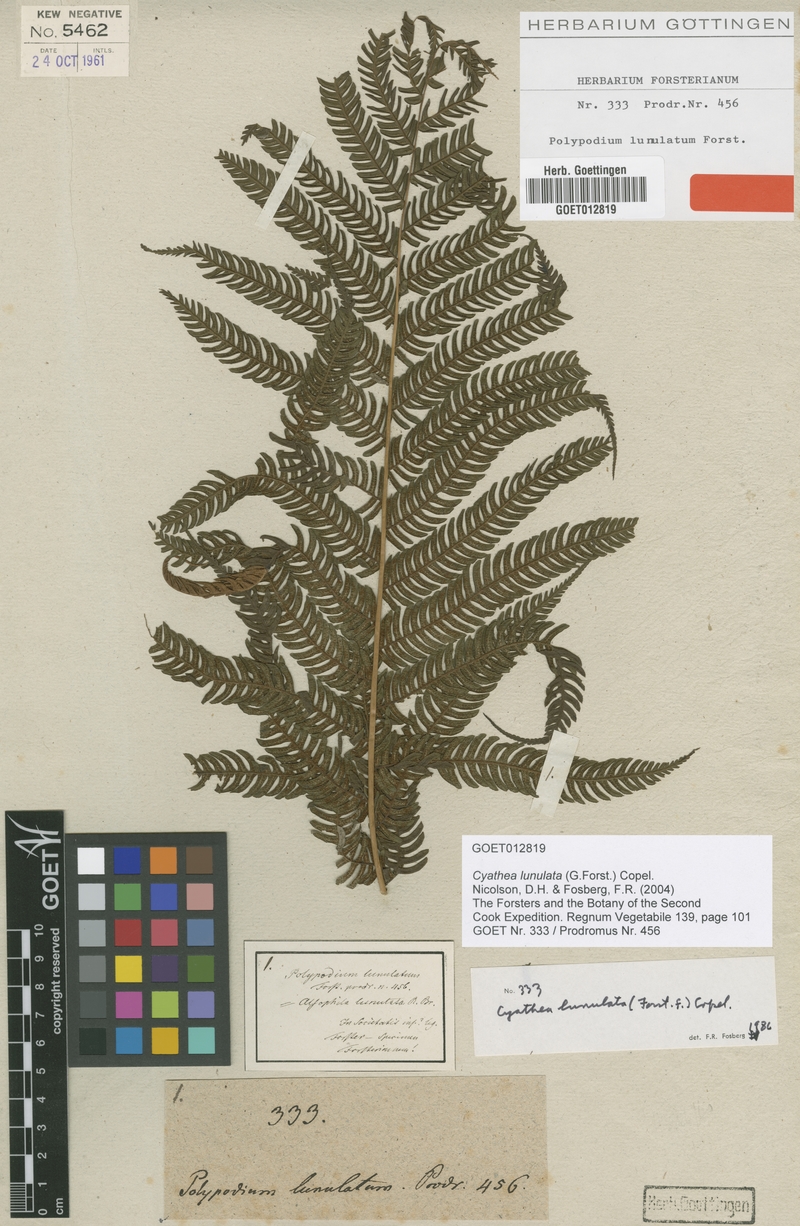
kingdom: Plantae
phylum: Tracheophyta
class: Polypodiopsida
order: Cyatheales
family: Cyatheaceae
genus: Sphaeropteris
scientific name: Sphaeropteris lunulata
